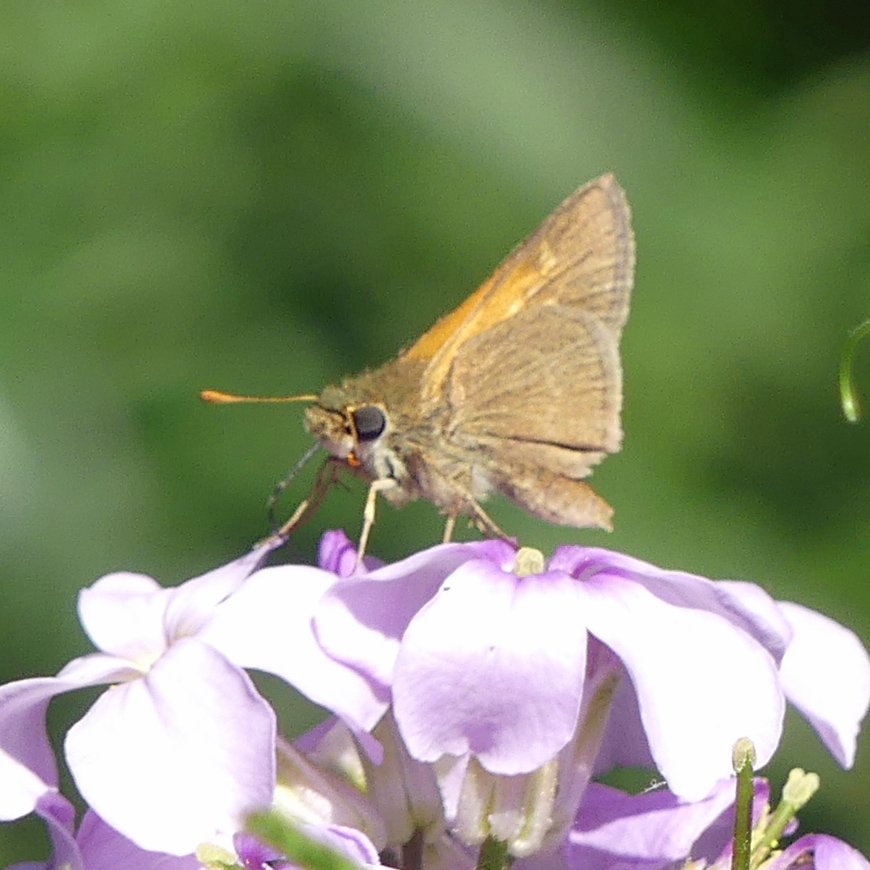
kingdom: Animalia
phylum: Arthropoda
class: Insecta
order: Lepidoptera
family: Hesperiidae
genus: Polites
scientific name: Polites themistocles
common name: Tawny-edged Skipper
